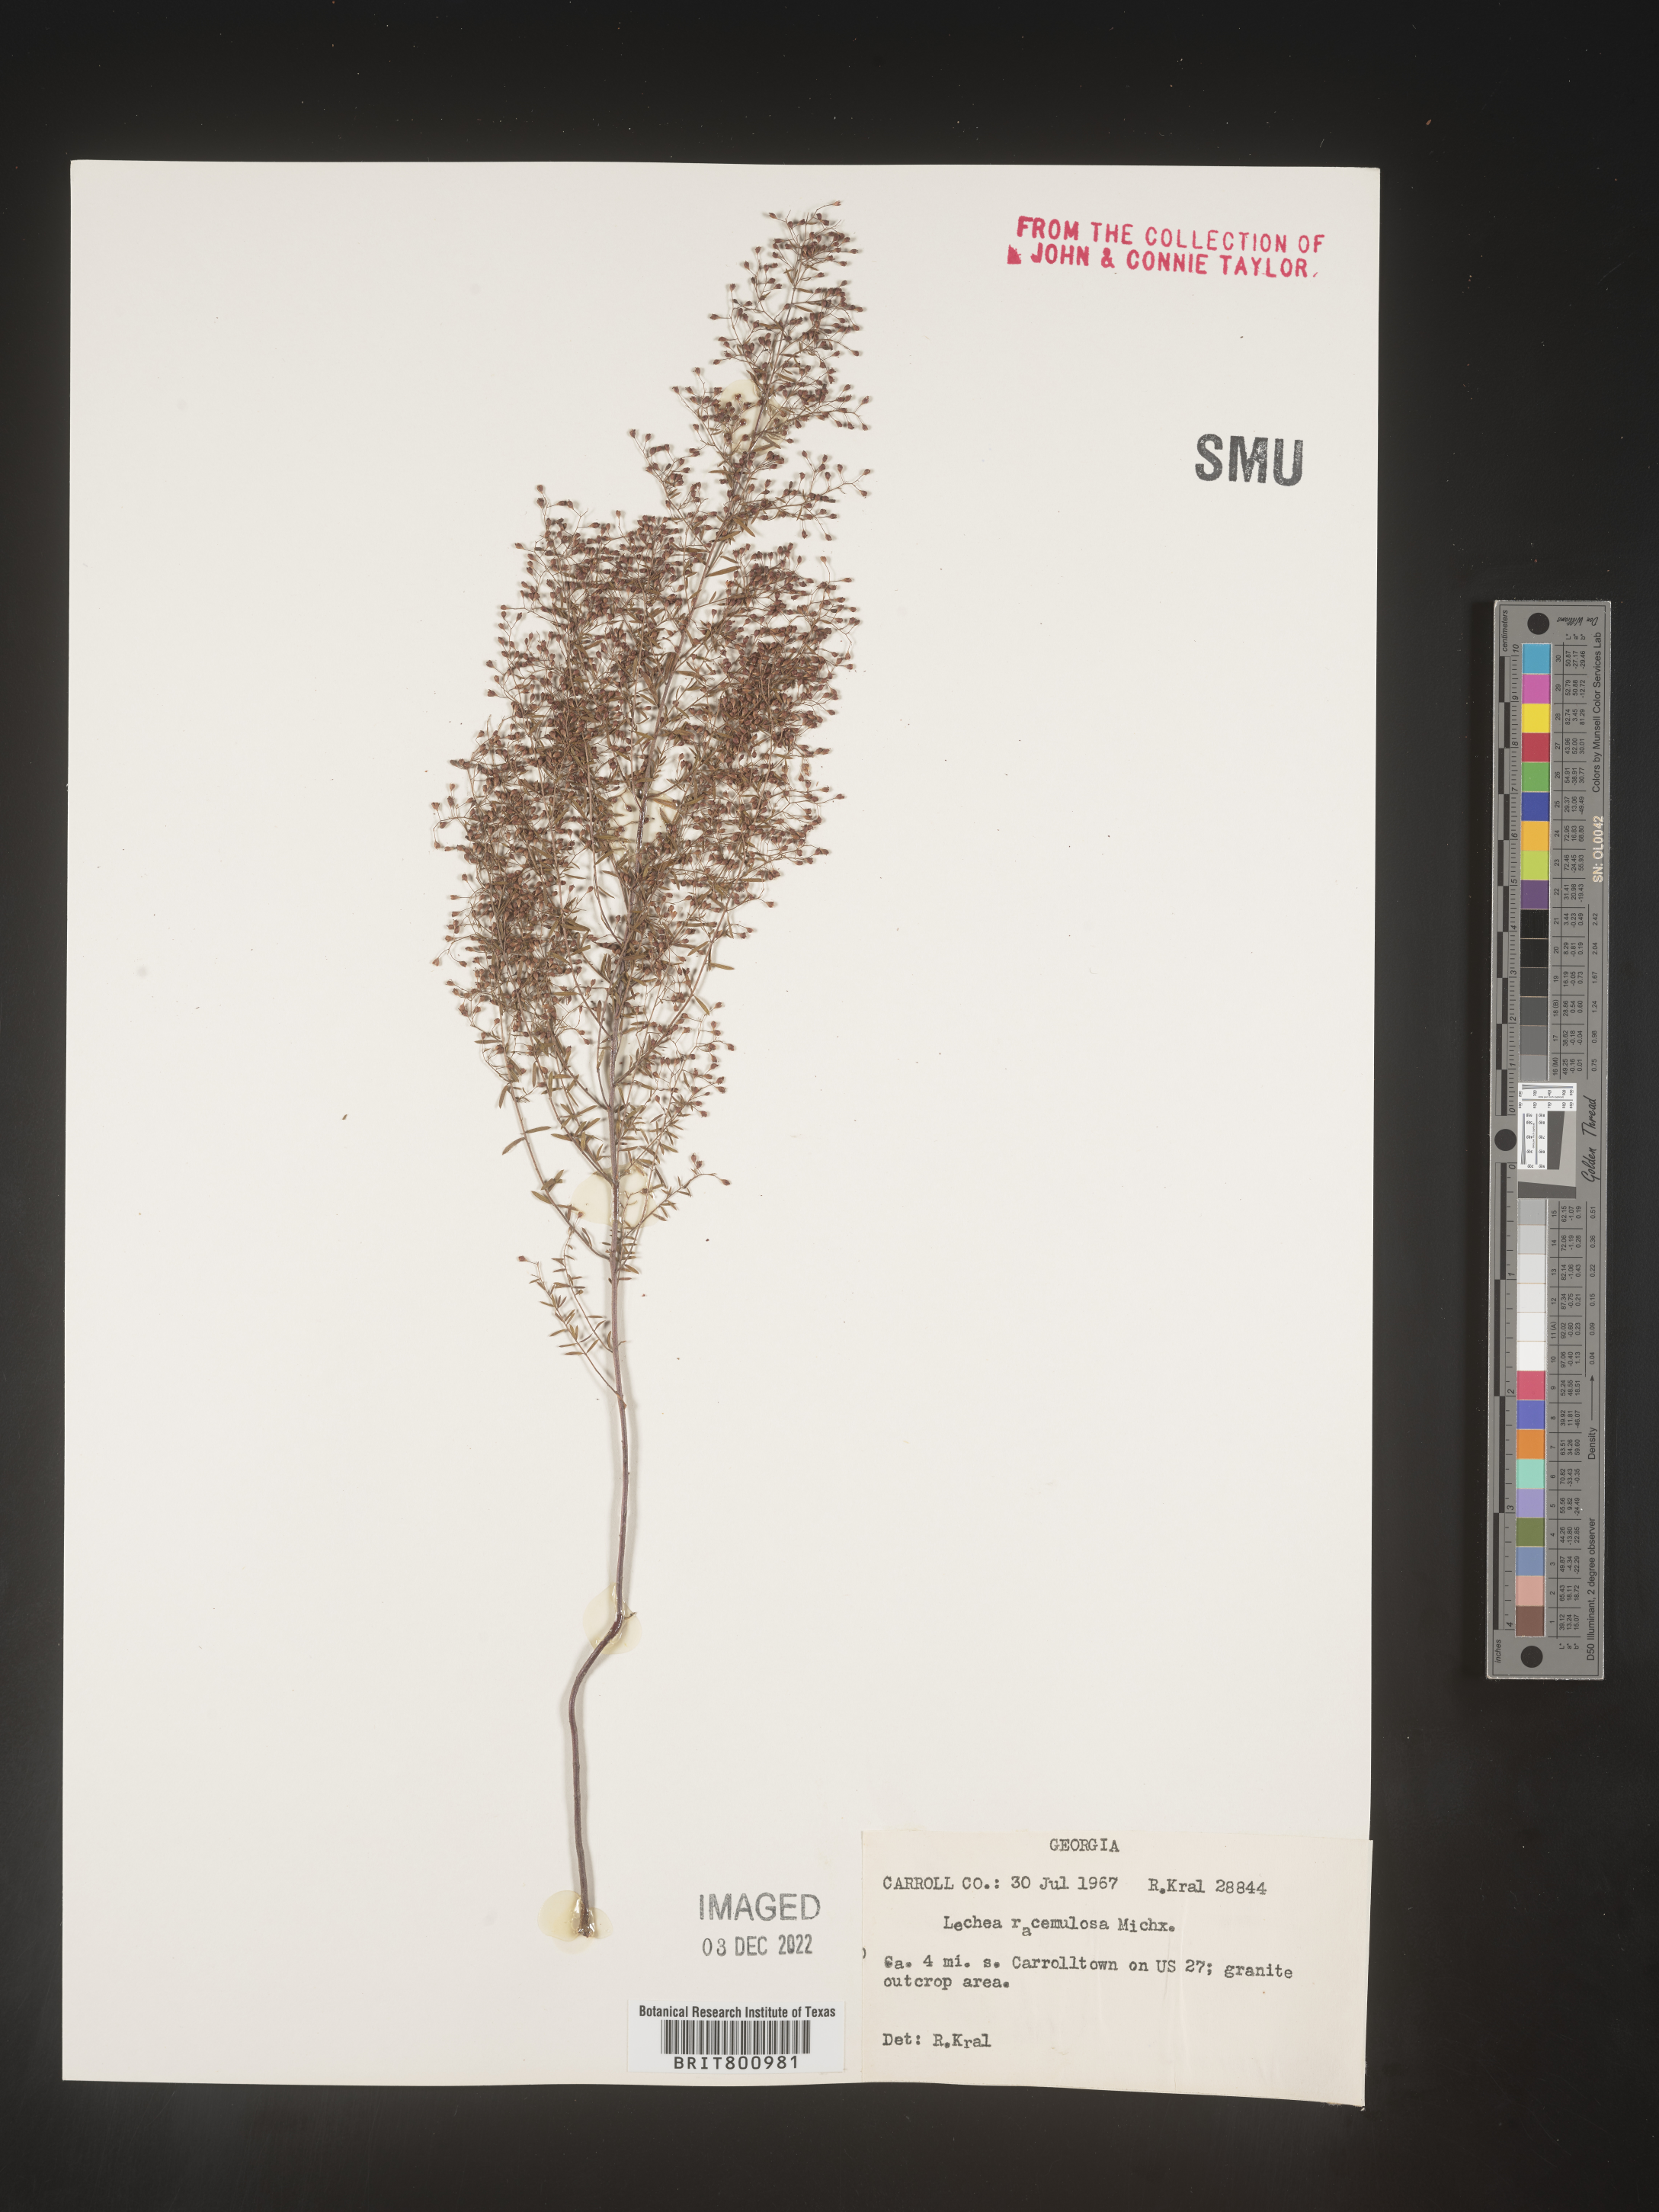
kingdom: Plantae
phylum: Tracheophyta
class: Magnoliopsida
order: Malvales
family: Cistaceae
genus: Lechea
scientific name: Lechea racemulosa
